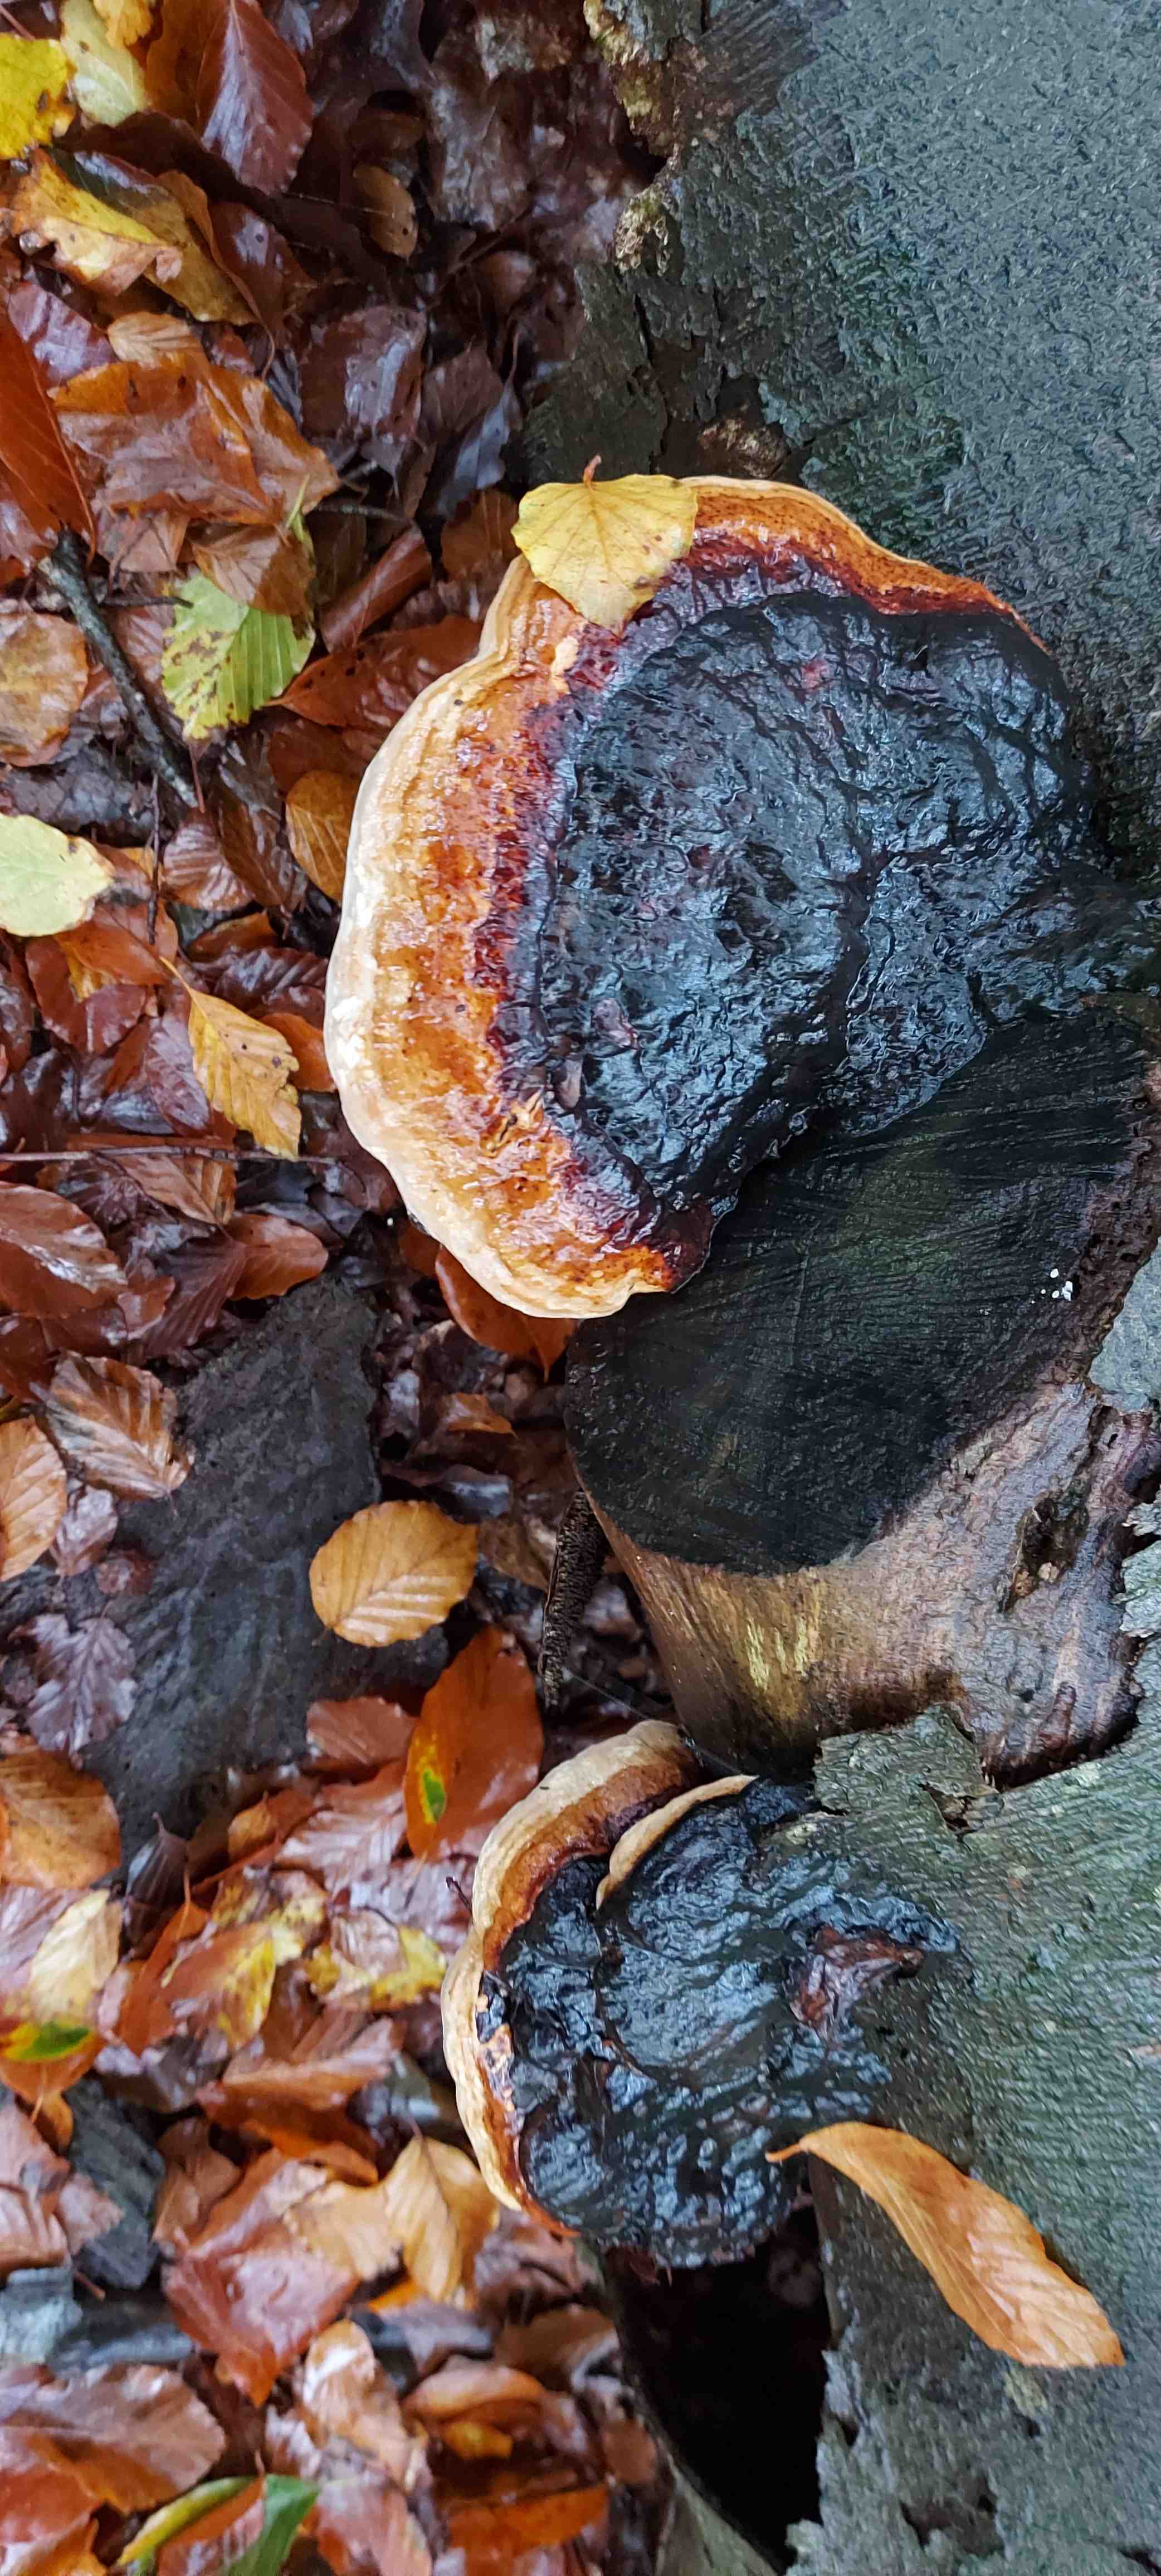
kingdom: Fungi
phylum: Basidiomycota
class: Agaricomycetes
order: Polyporales
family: Fomitopsidaceae
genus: Fomitopsis
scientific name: Fomitopsis pinicola
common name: randbæltet hovporesvamp
